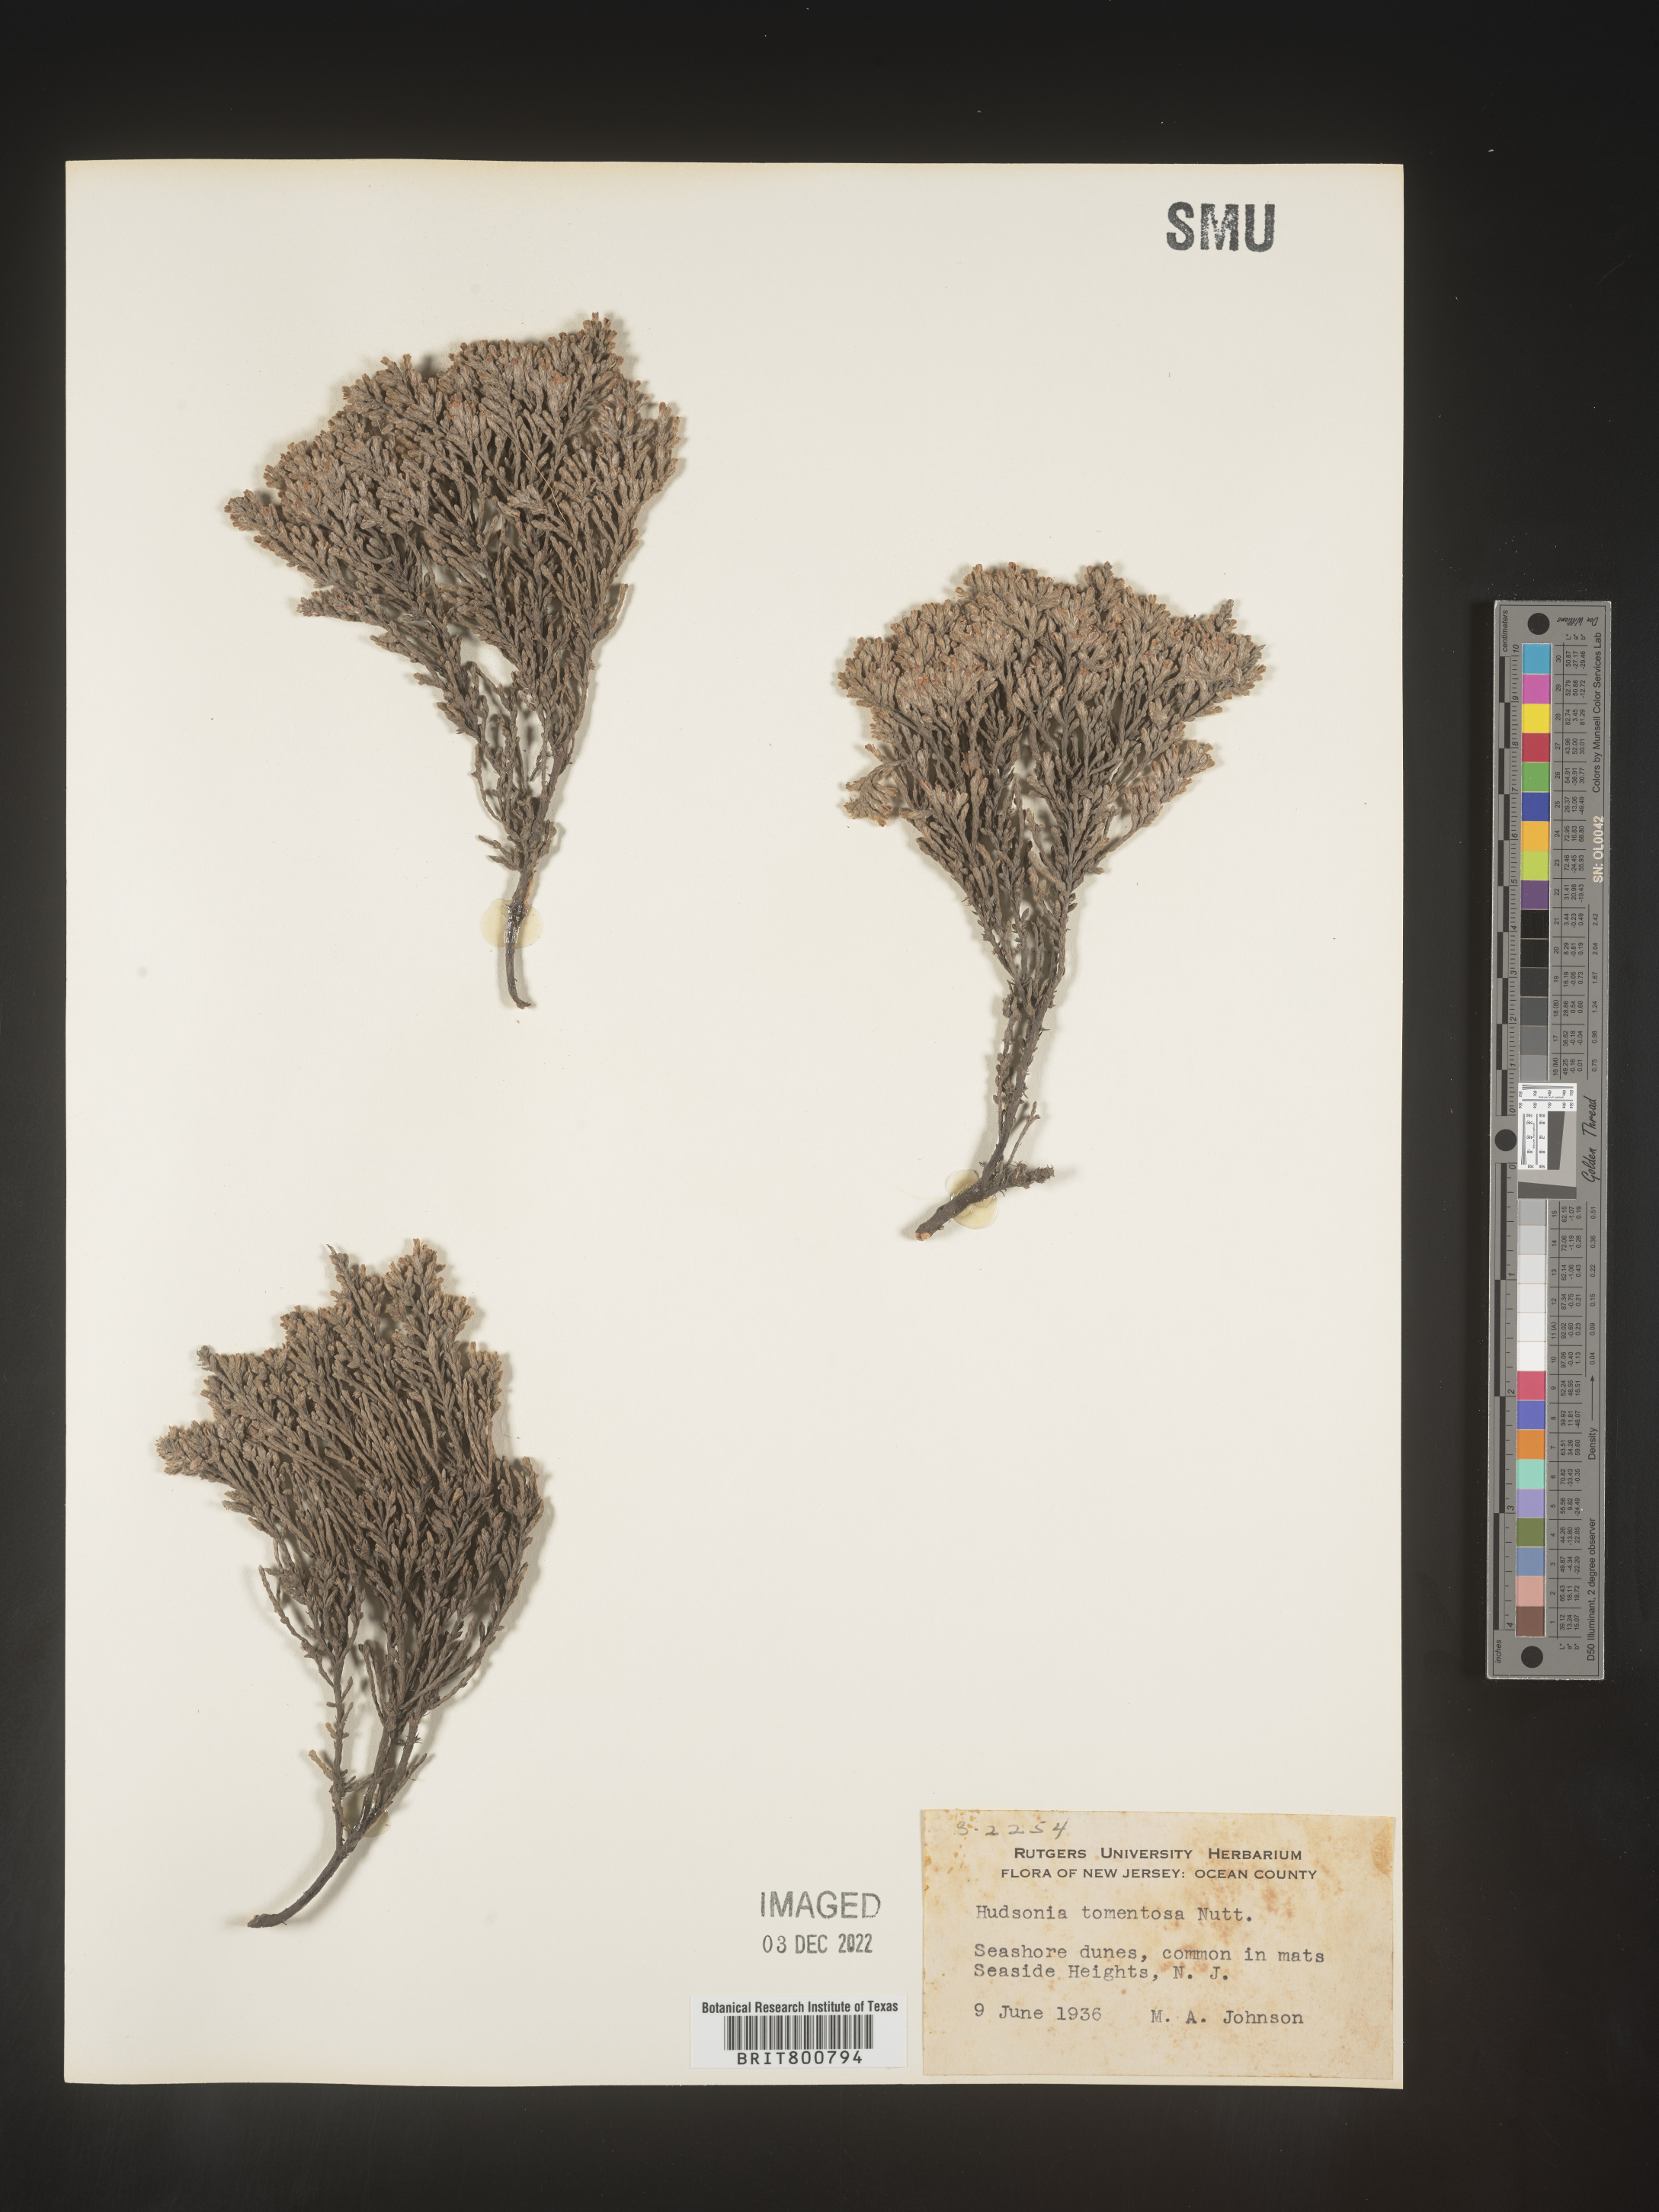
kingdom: Plantae
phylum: Tracheophyta
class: Magnoliopsida
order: Malvales
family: Cistaceae
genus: Hudsonia
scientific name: Hudsonia tomentosa
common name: Beach-heath
